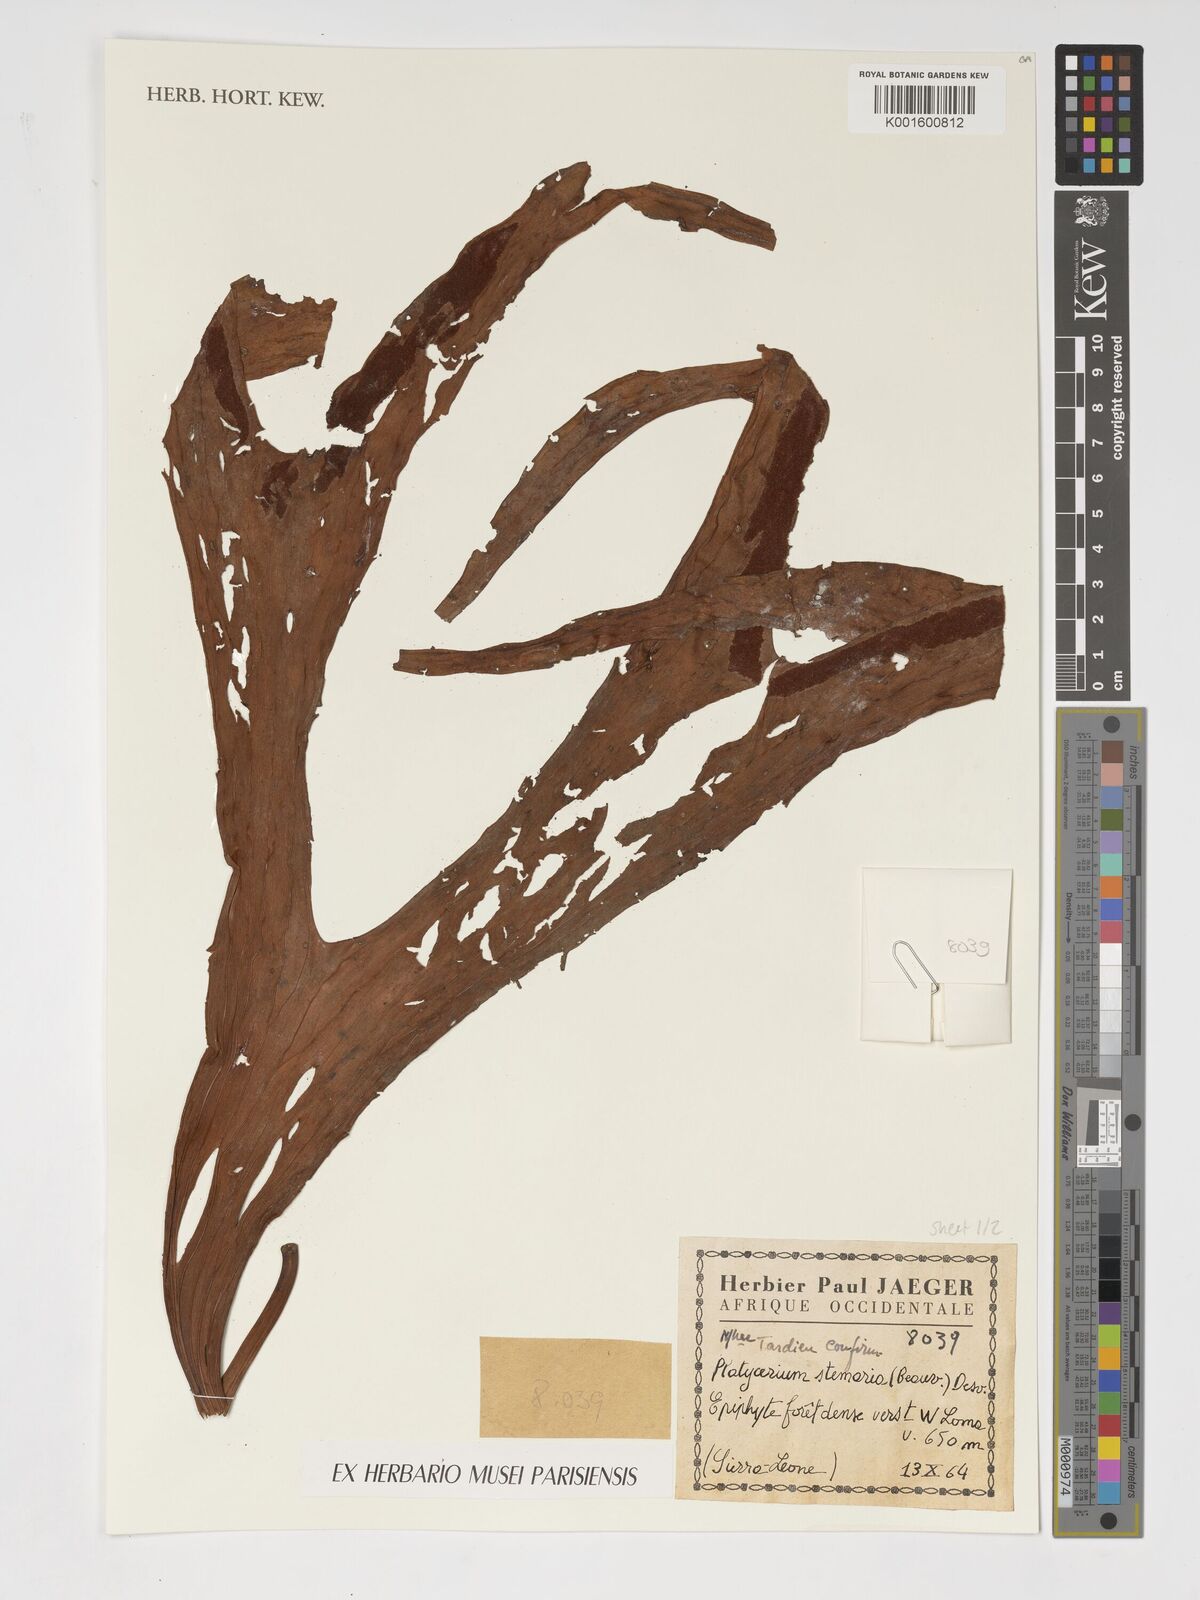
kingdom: Plantae
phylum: Tracheophyta
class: Polypodiopsida
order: Polypodiales
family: Polypodiaceae
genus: Platycerium
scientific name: Platycerium stemaria
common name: Triangular staghorn fern
